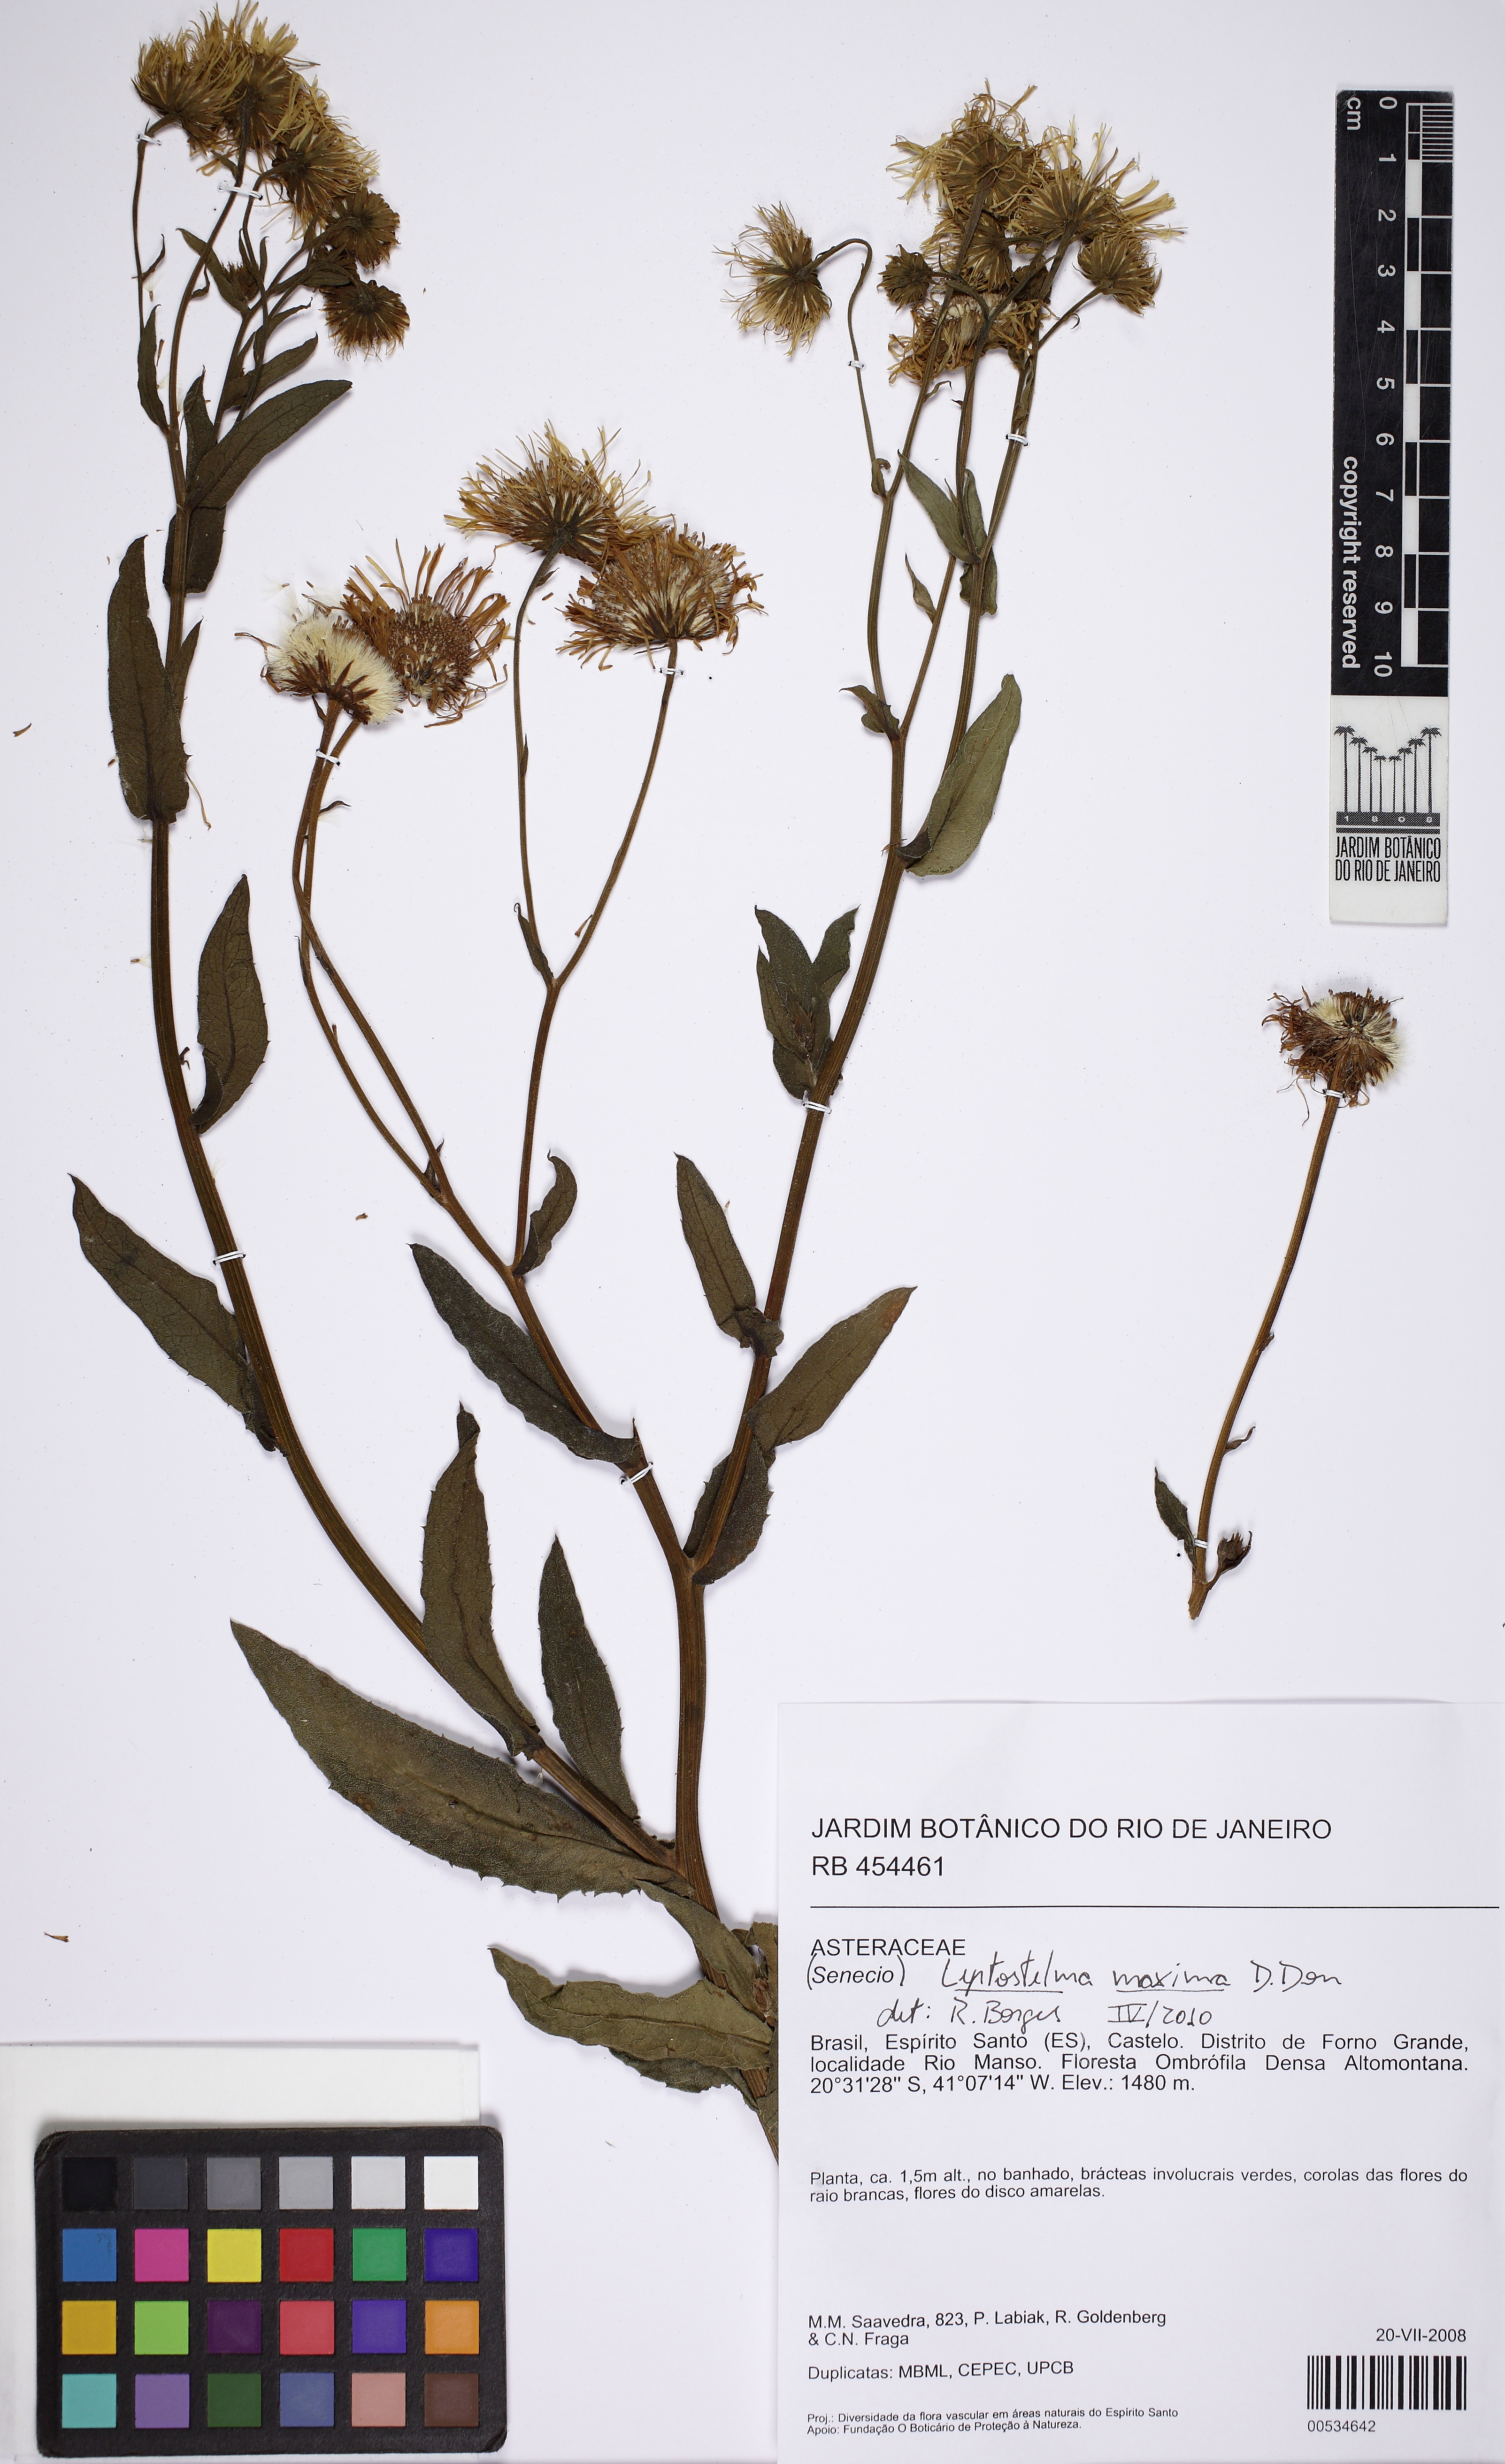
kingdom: Plantae
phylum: Tracheophyta
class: Magnoliopsida
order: Asterales
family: Asteraceae
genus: Leptostelma
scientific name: Leptostelma maxima
